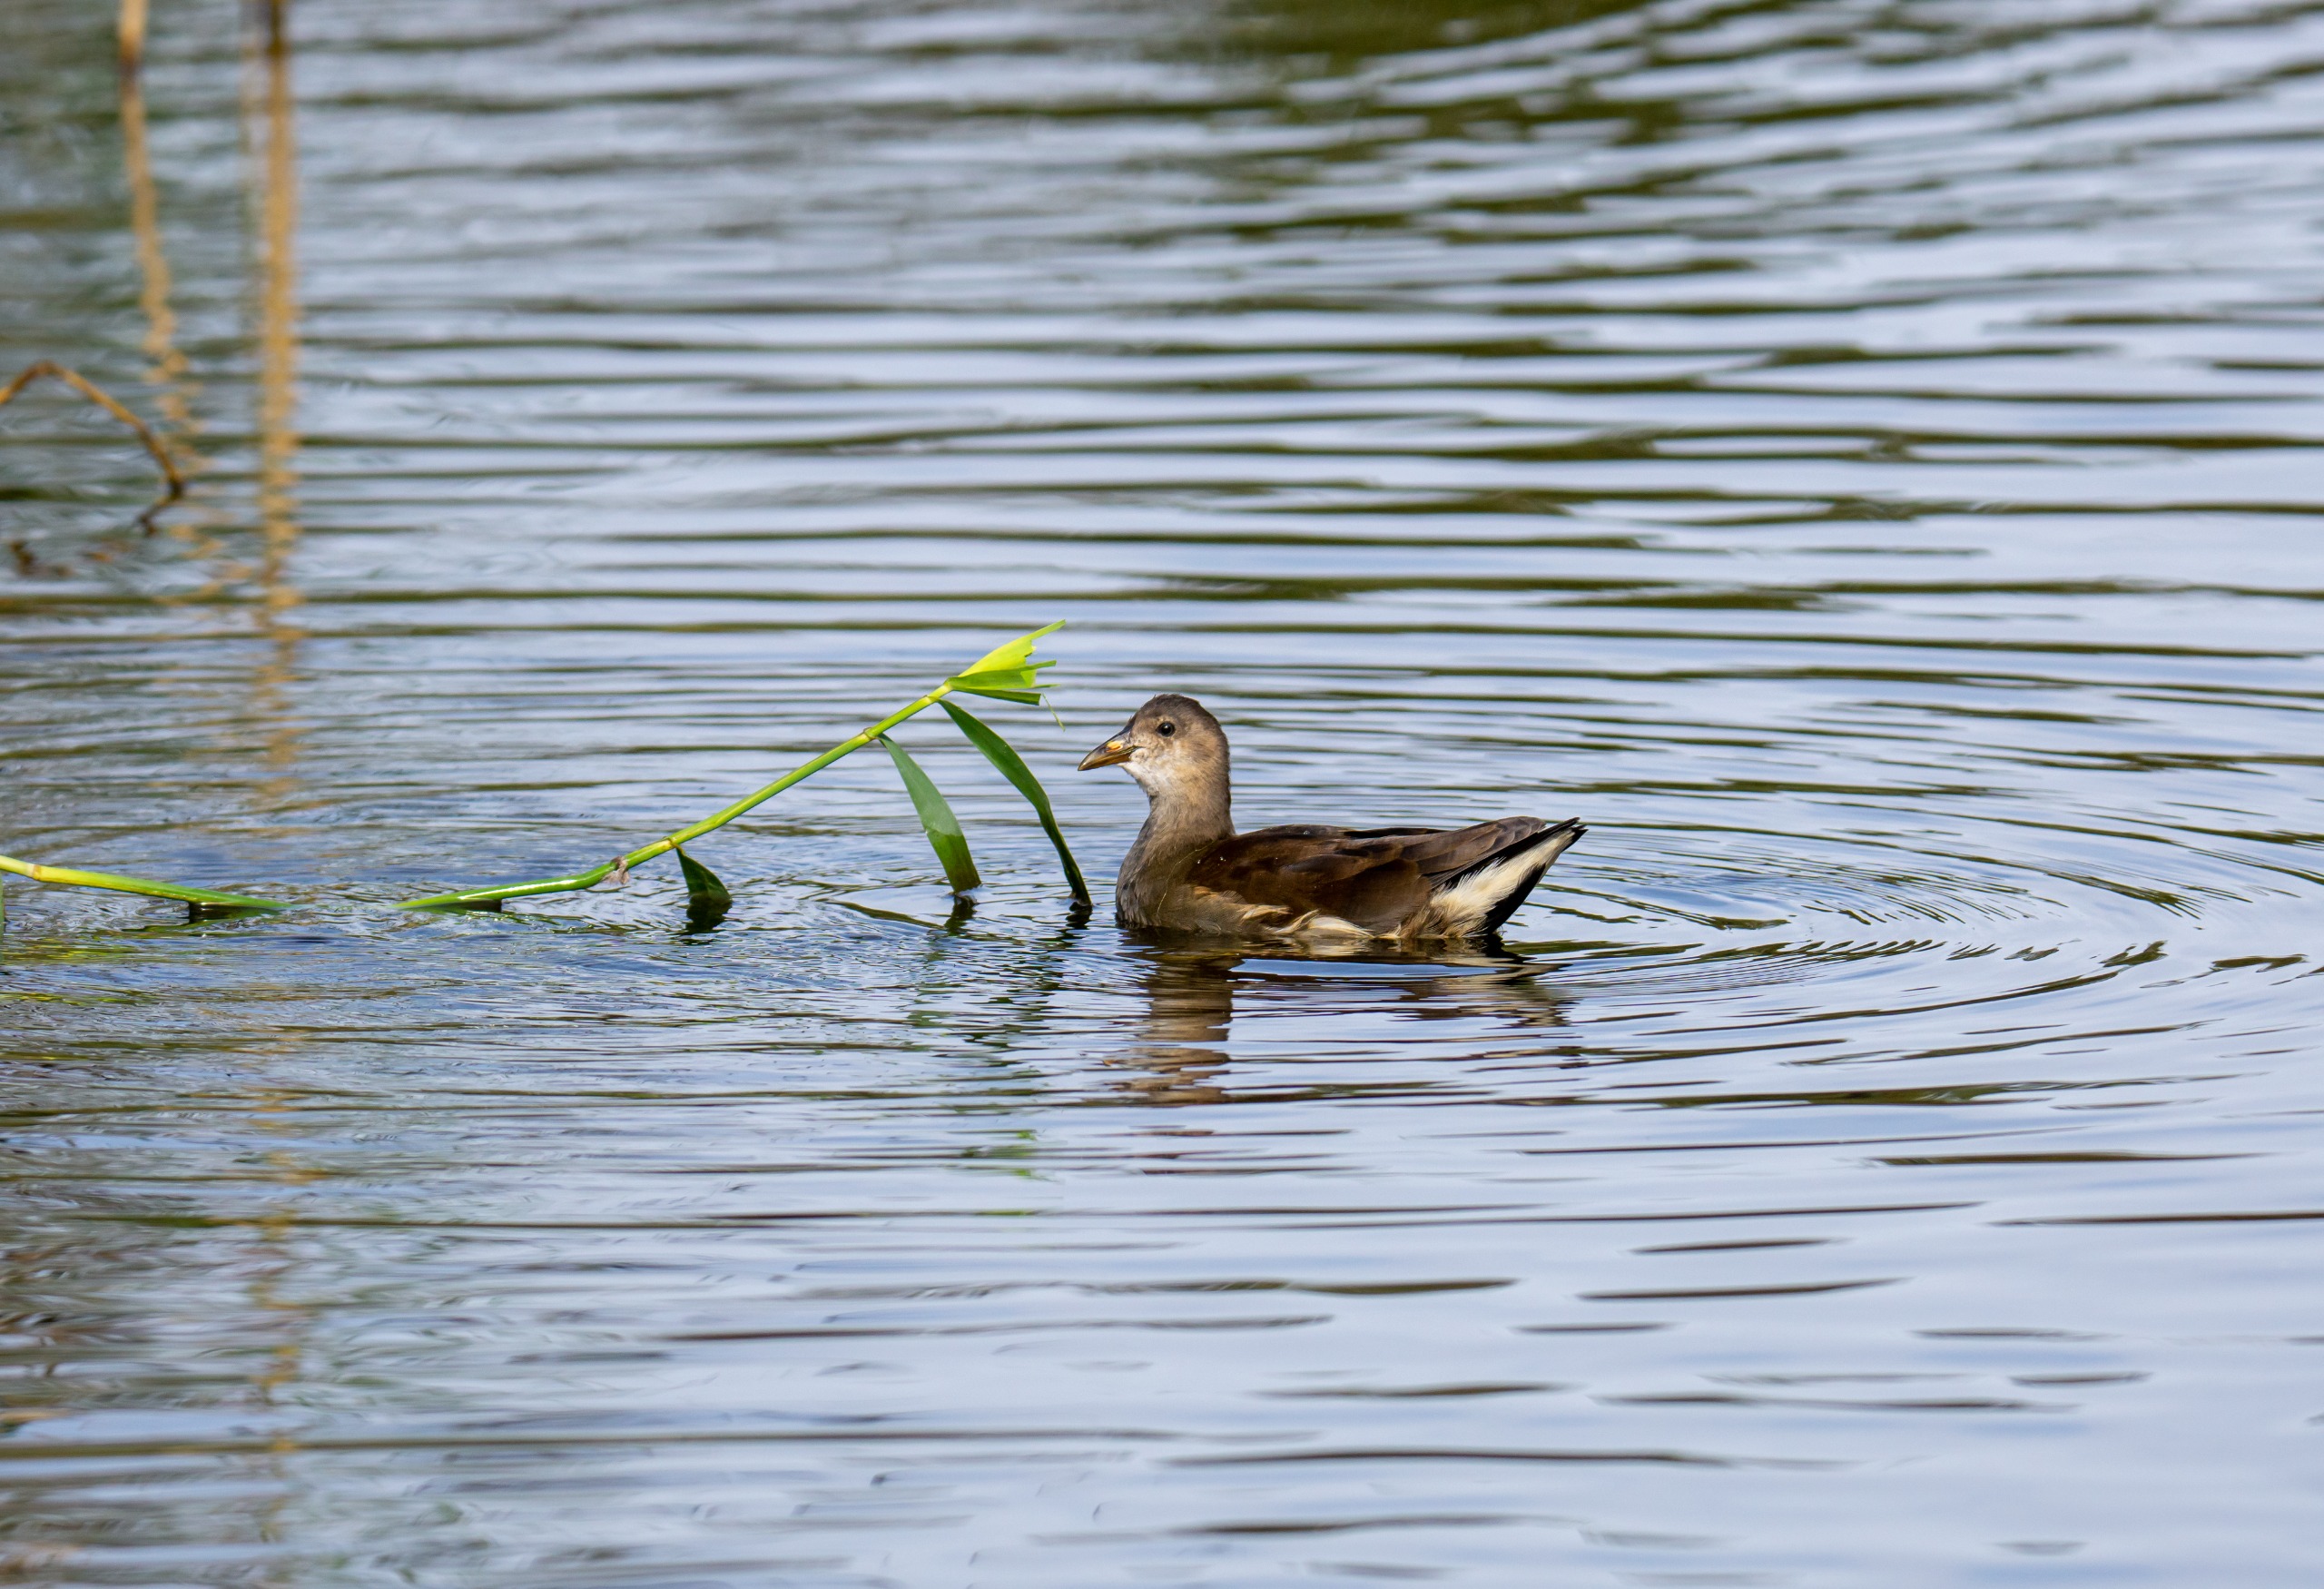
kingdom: Animalia
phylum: Chordata
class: Aves
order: Gruiformes
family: Rallidae
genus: Gallinula
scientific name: Gallinula chloropus
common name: Grønbenet rørhøne
